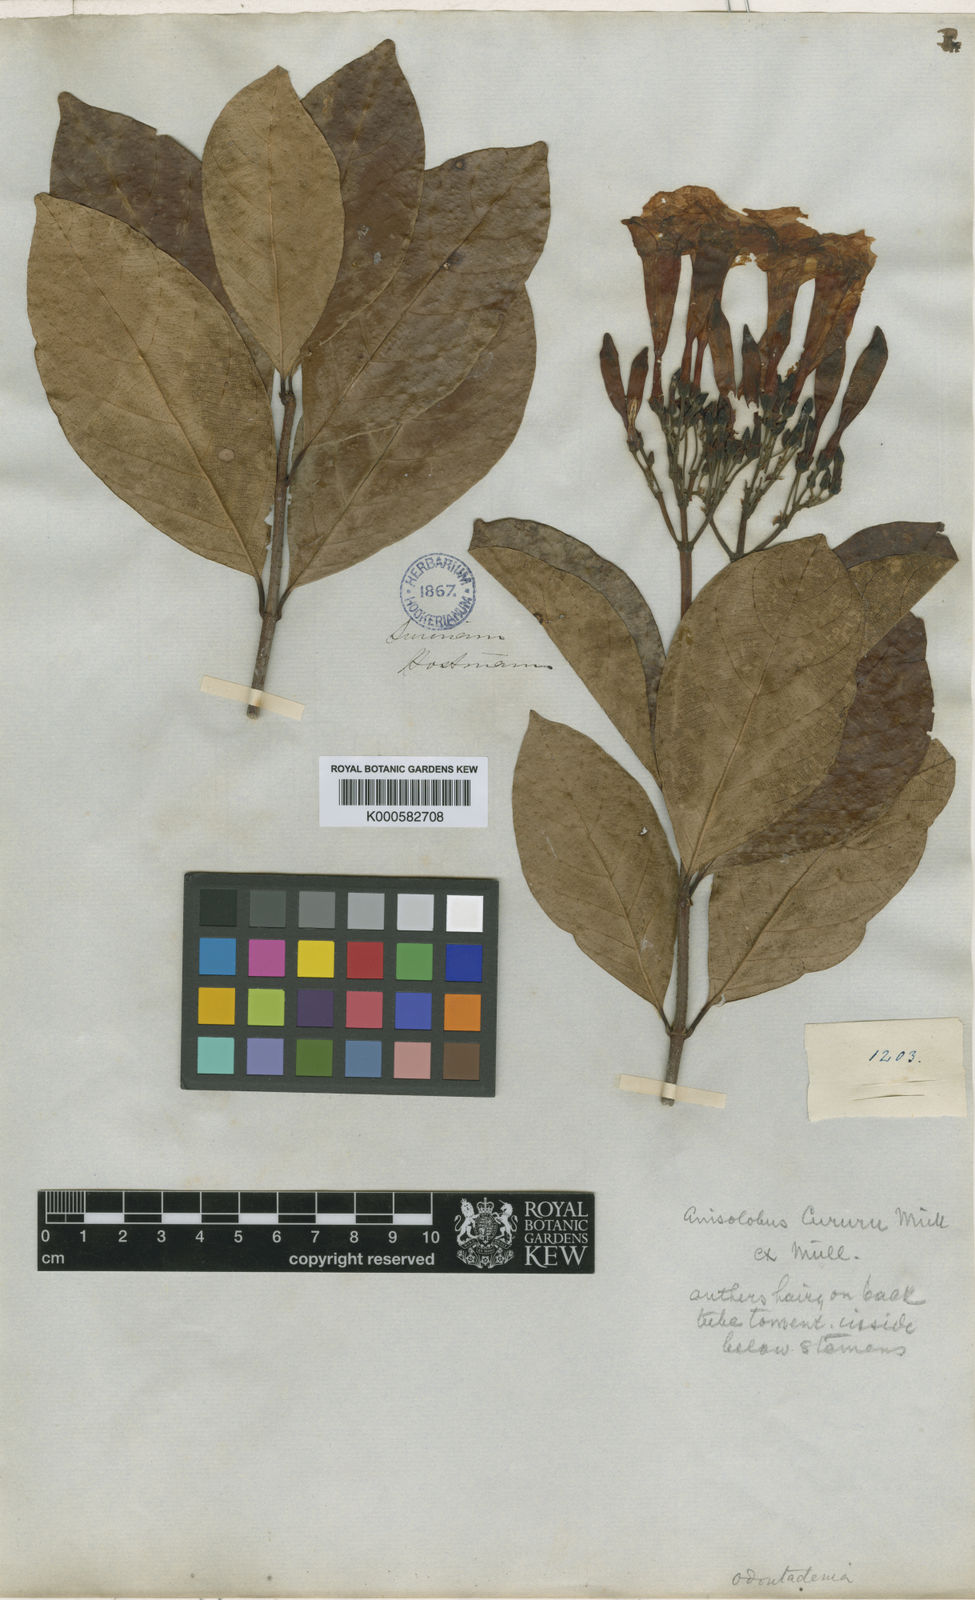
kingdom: Plantae
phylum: Tracheophyta
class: Magnoliopsida
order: Gentianales
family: Apocynaceae
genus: Odontadenia
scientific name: Odontadenia puncticulosa
